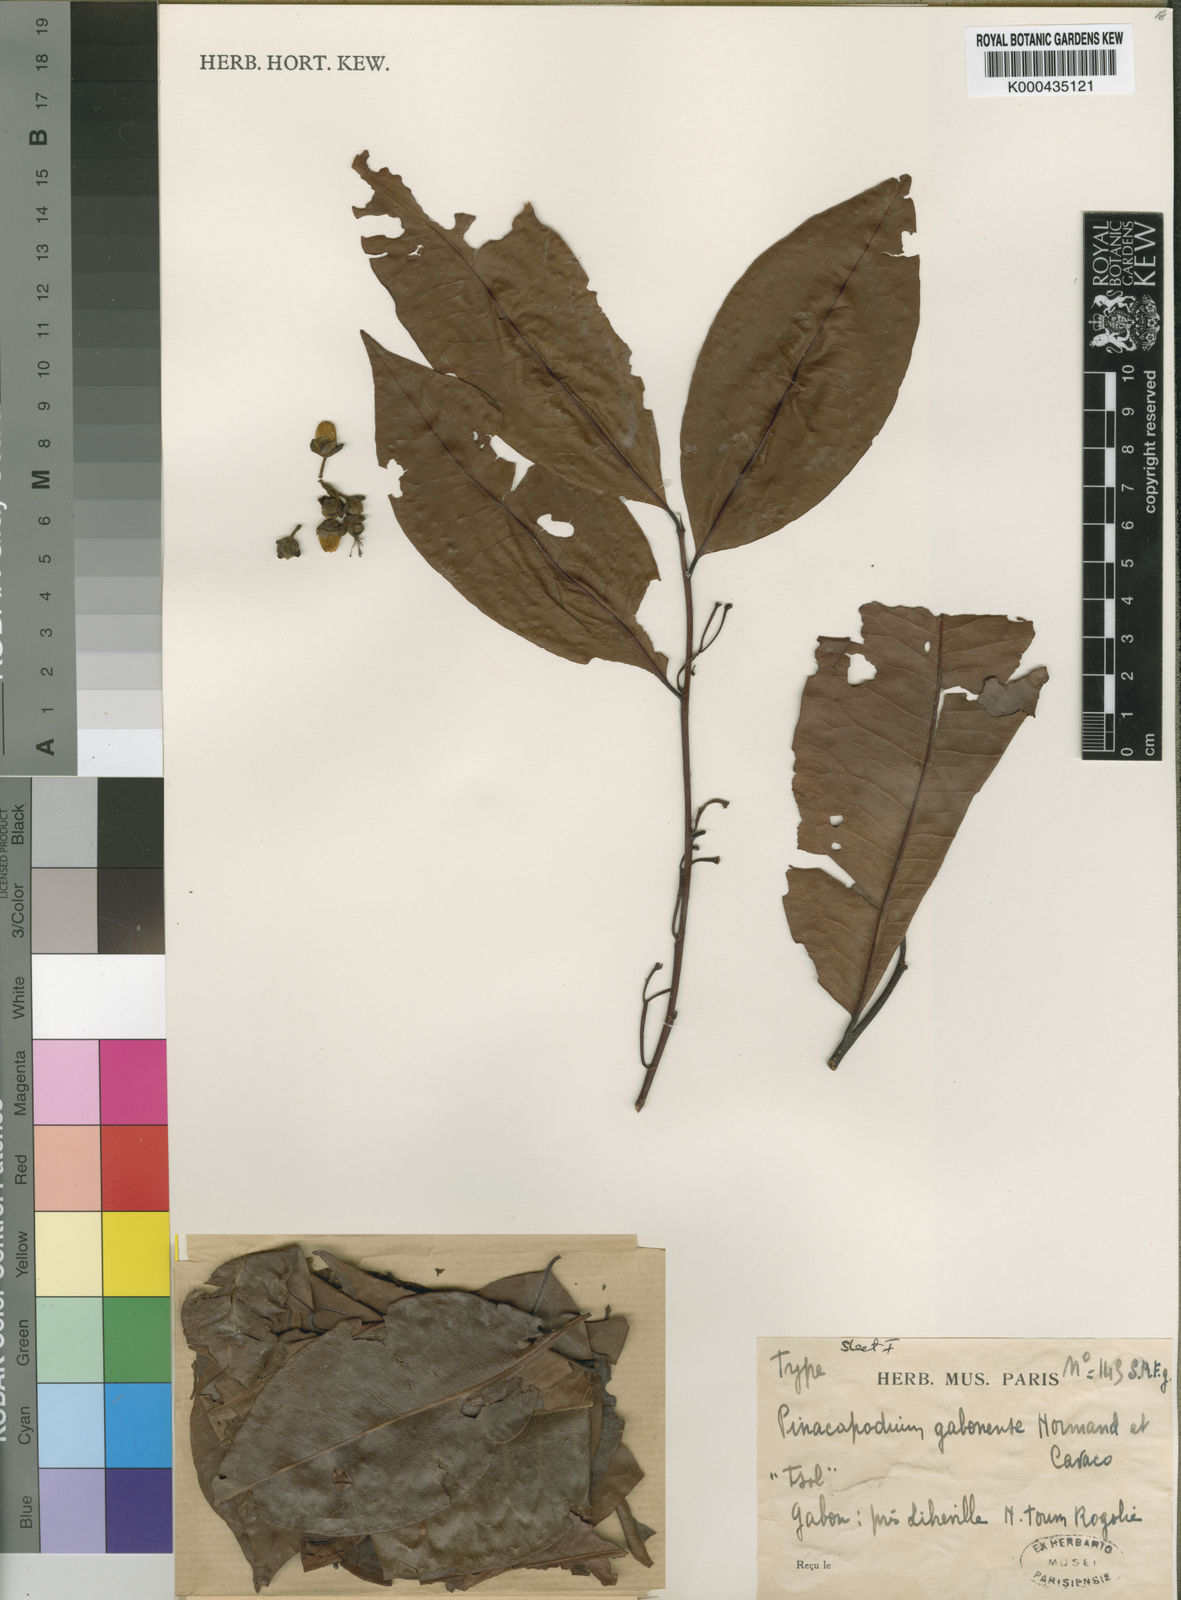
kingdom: Plantae
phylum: Tracheophyta
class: Magnoliopsida
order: Malpighiales
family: Erythroxylaceae
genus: Pinacopodium
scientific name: Pinacopodium gabonense
